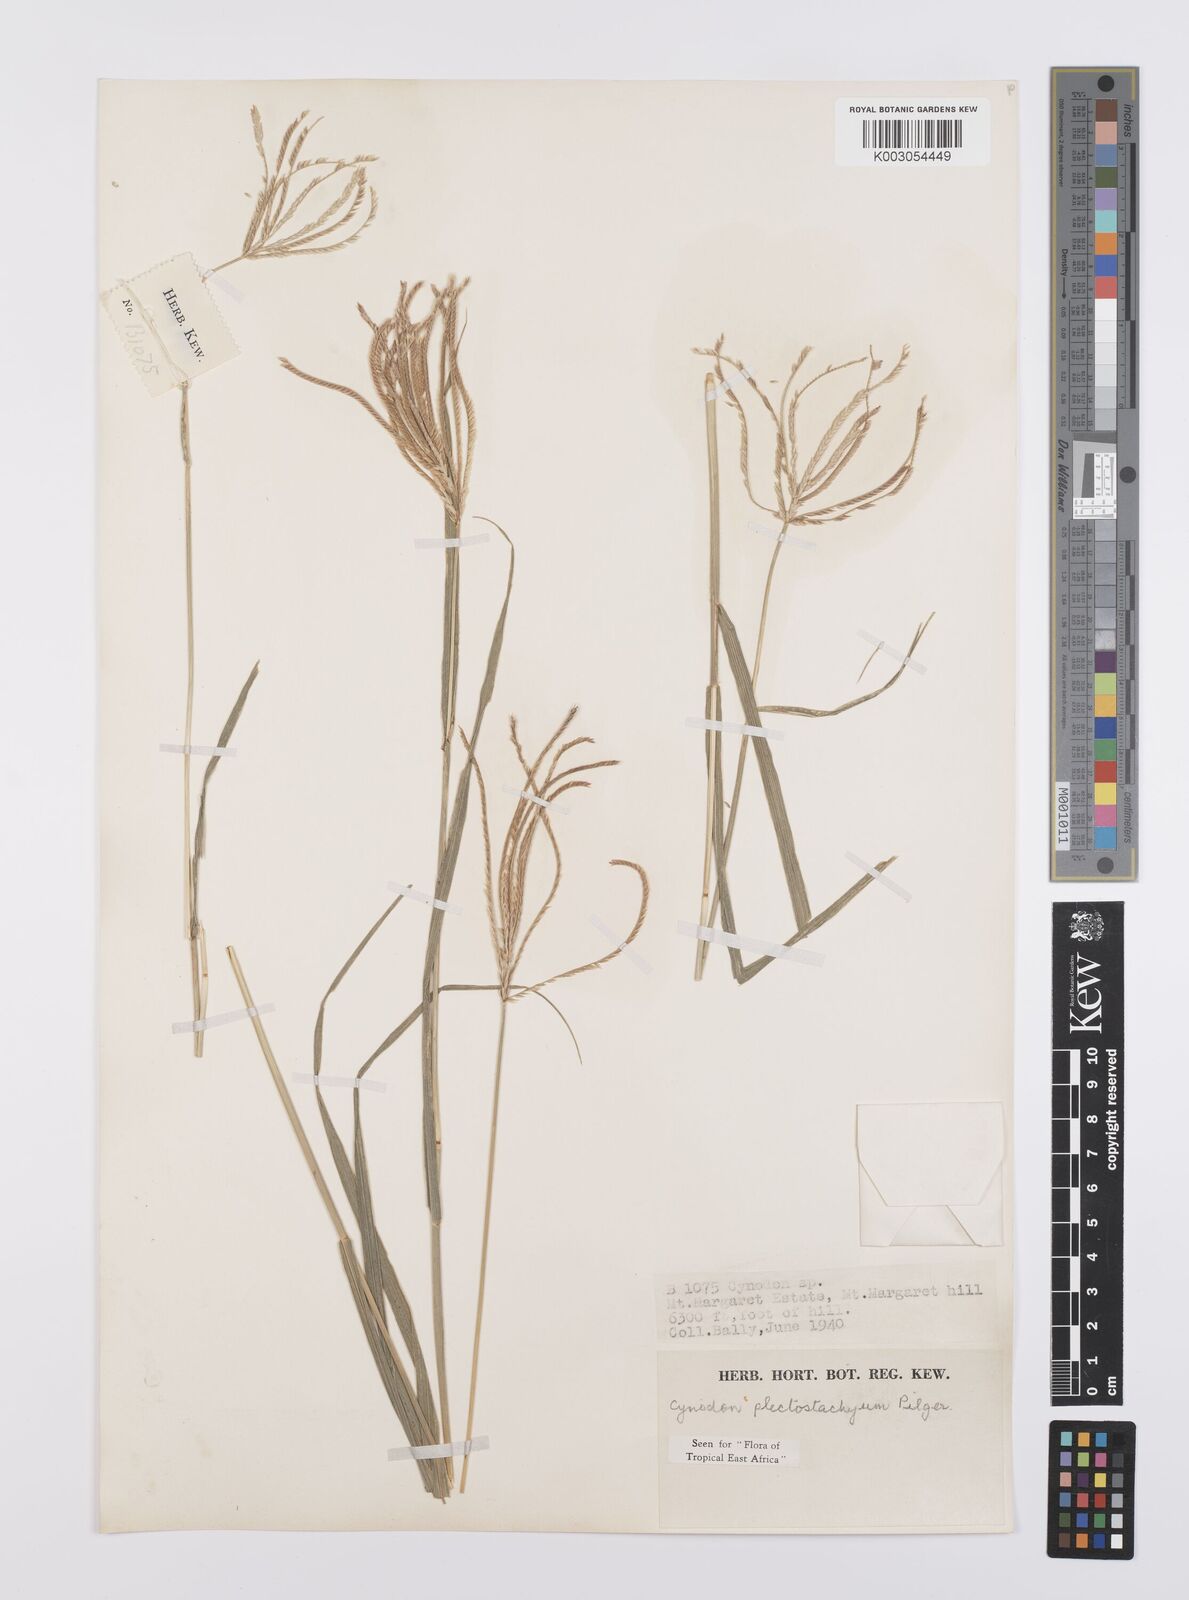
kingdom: Plantae
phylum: Tracheophyta
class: Liliopsida
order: Poales
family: Poaceae
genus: Cynodon
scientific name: Cynodon plectostachyus
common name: Stargrass
